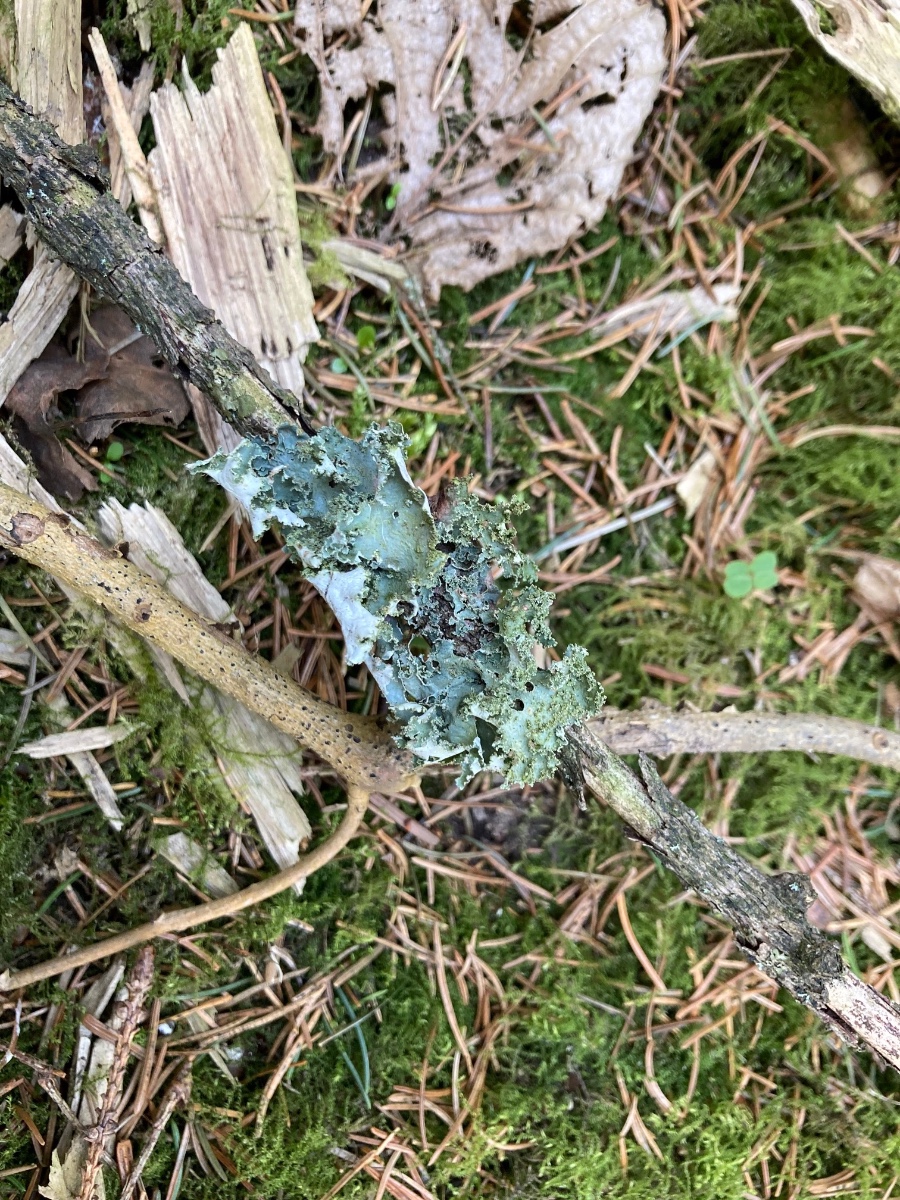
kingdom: Fungi
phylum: Ascomycota
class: Lecanoromycetes
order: Lecanorales
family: Parmeliaceae
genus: Platismatia
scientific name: Platismatia glauca
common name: blågrå papirlav
